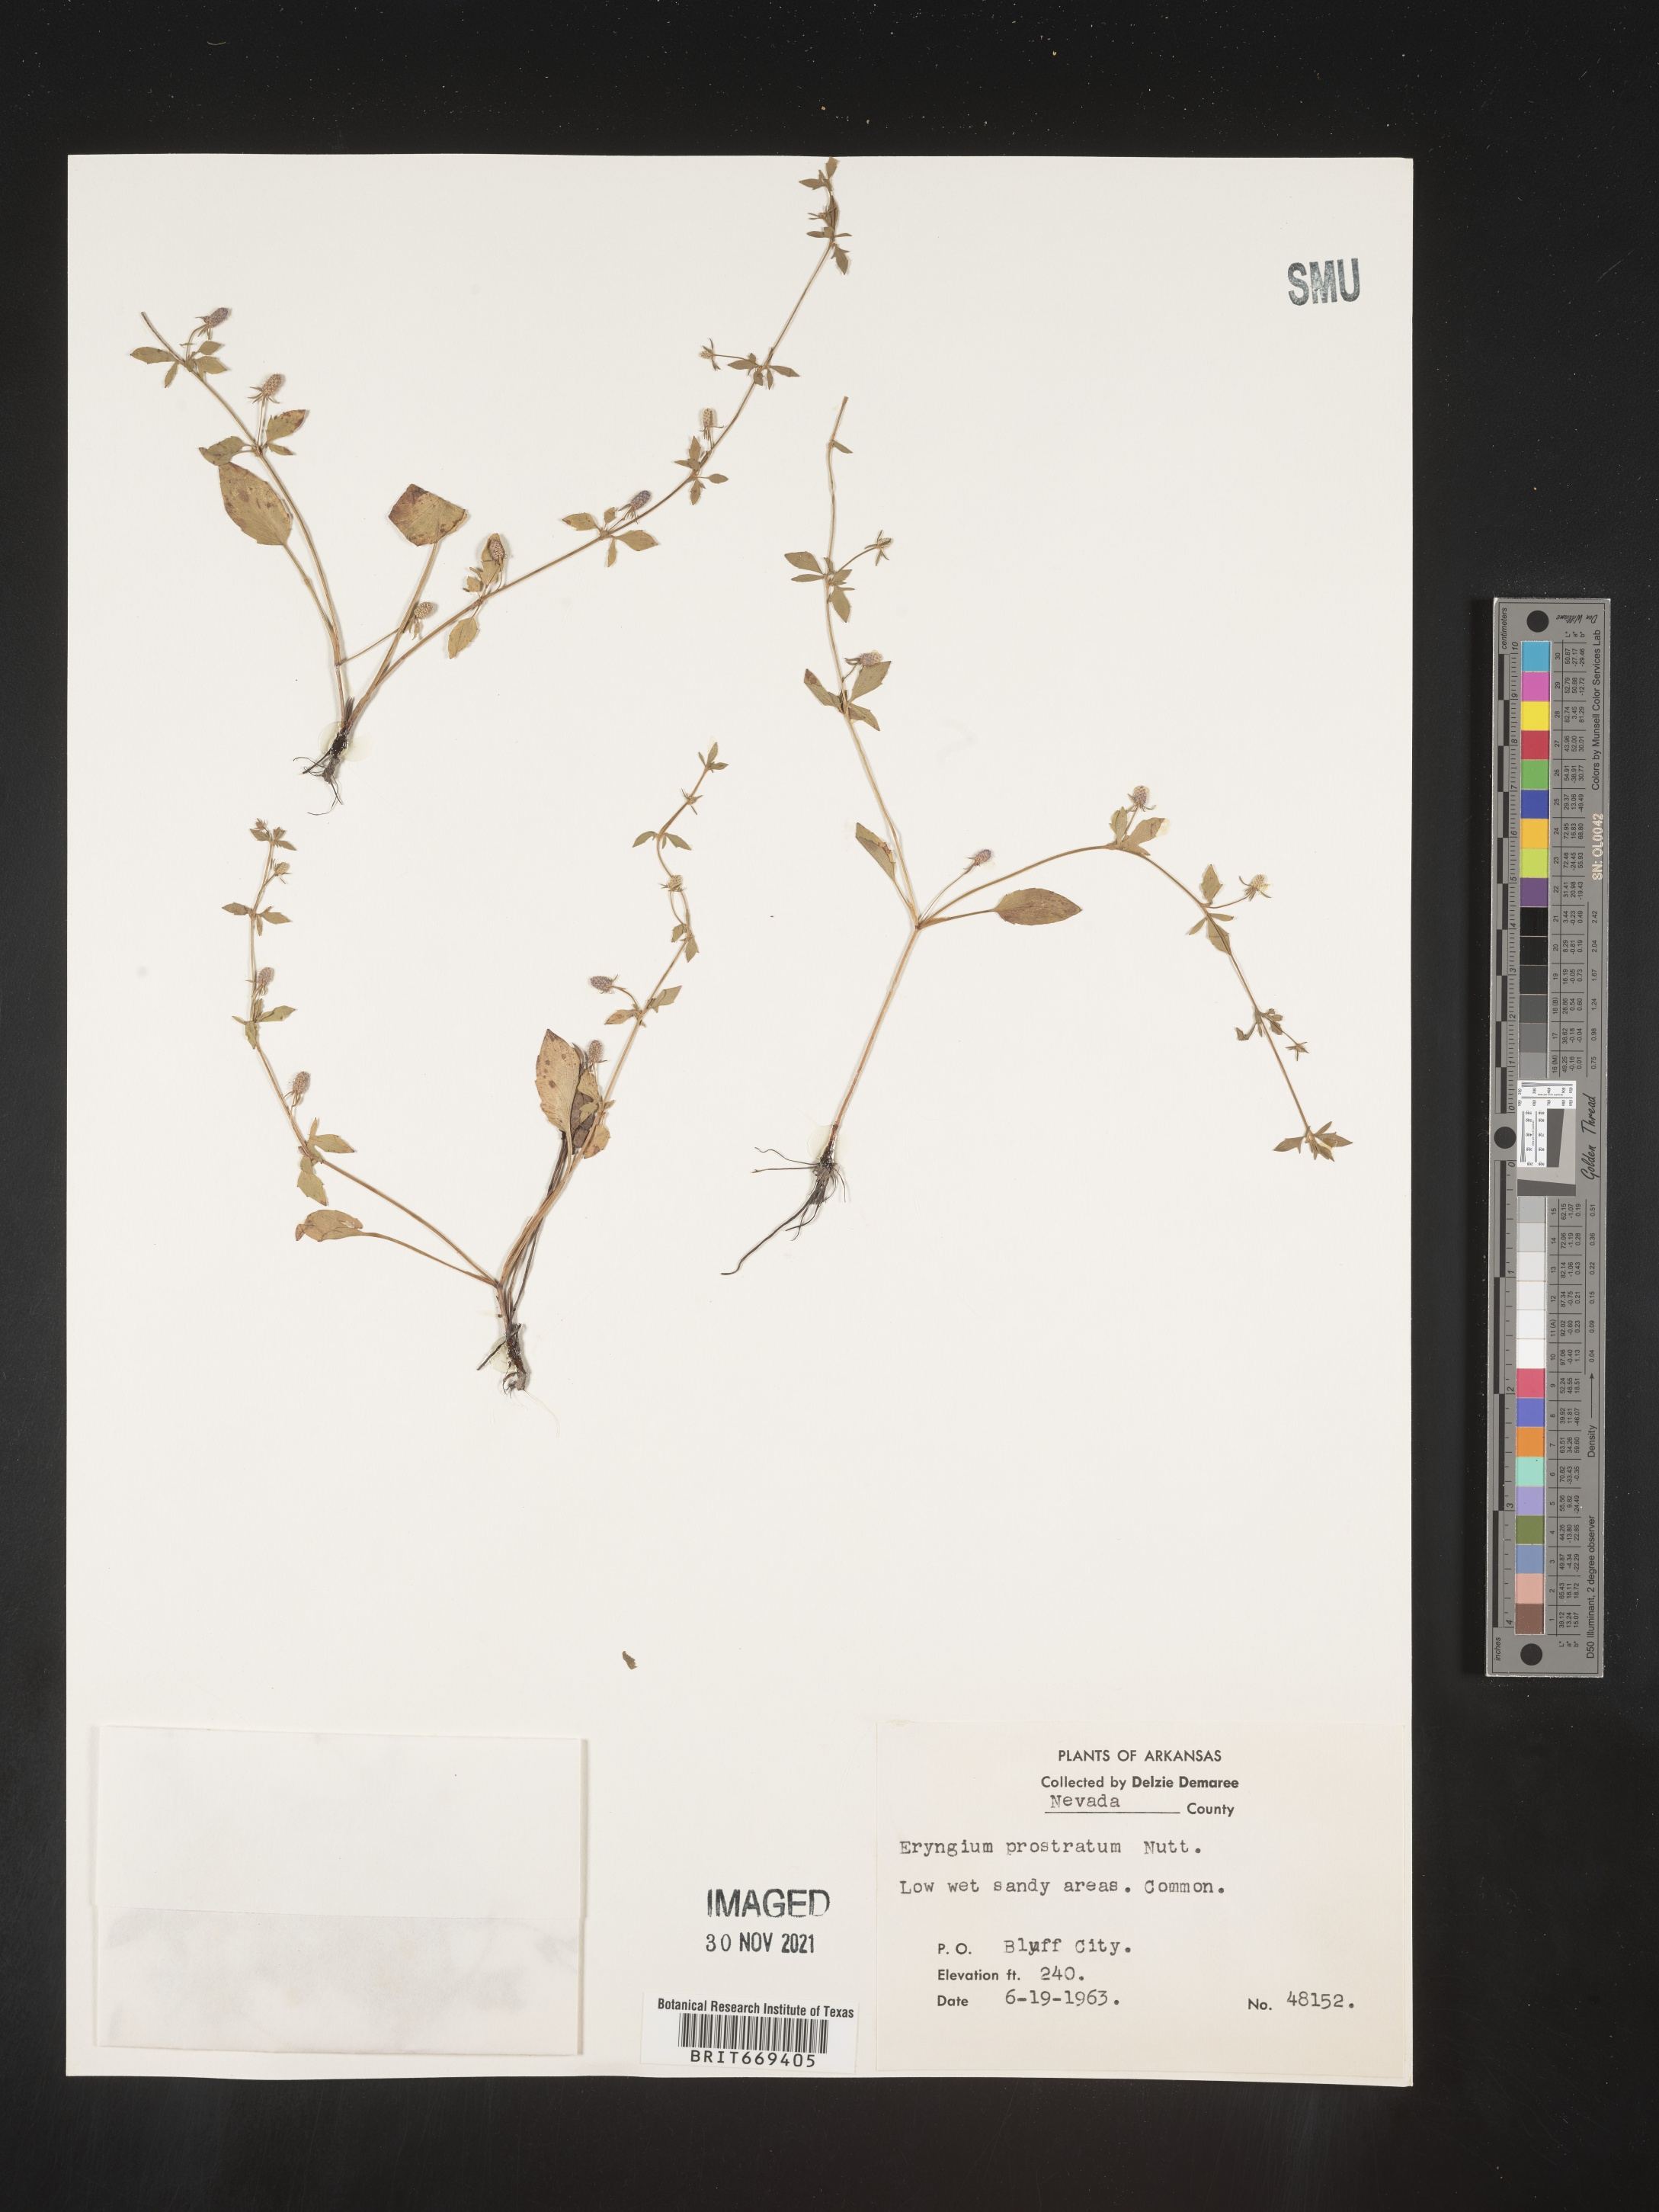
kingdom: Plantae
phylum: Tracheophyta
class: Magnoliopsida
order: Apiales
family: Apiaceae
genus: Eryngium
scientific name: Eryngium prostratum
